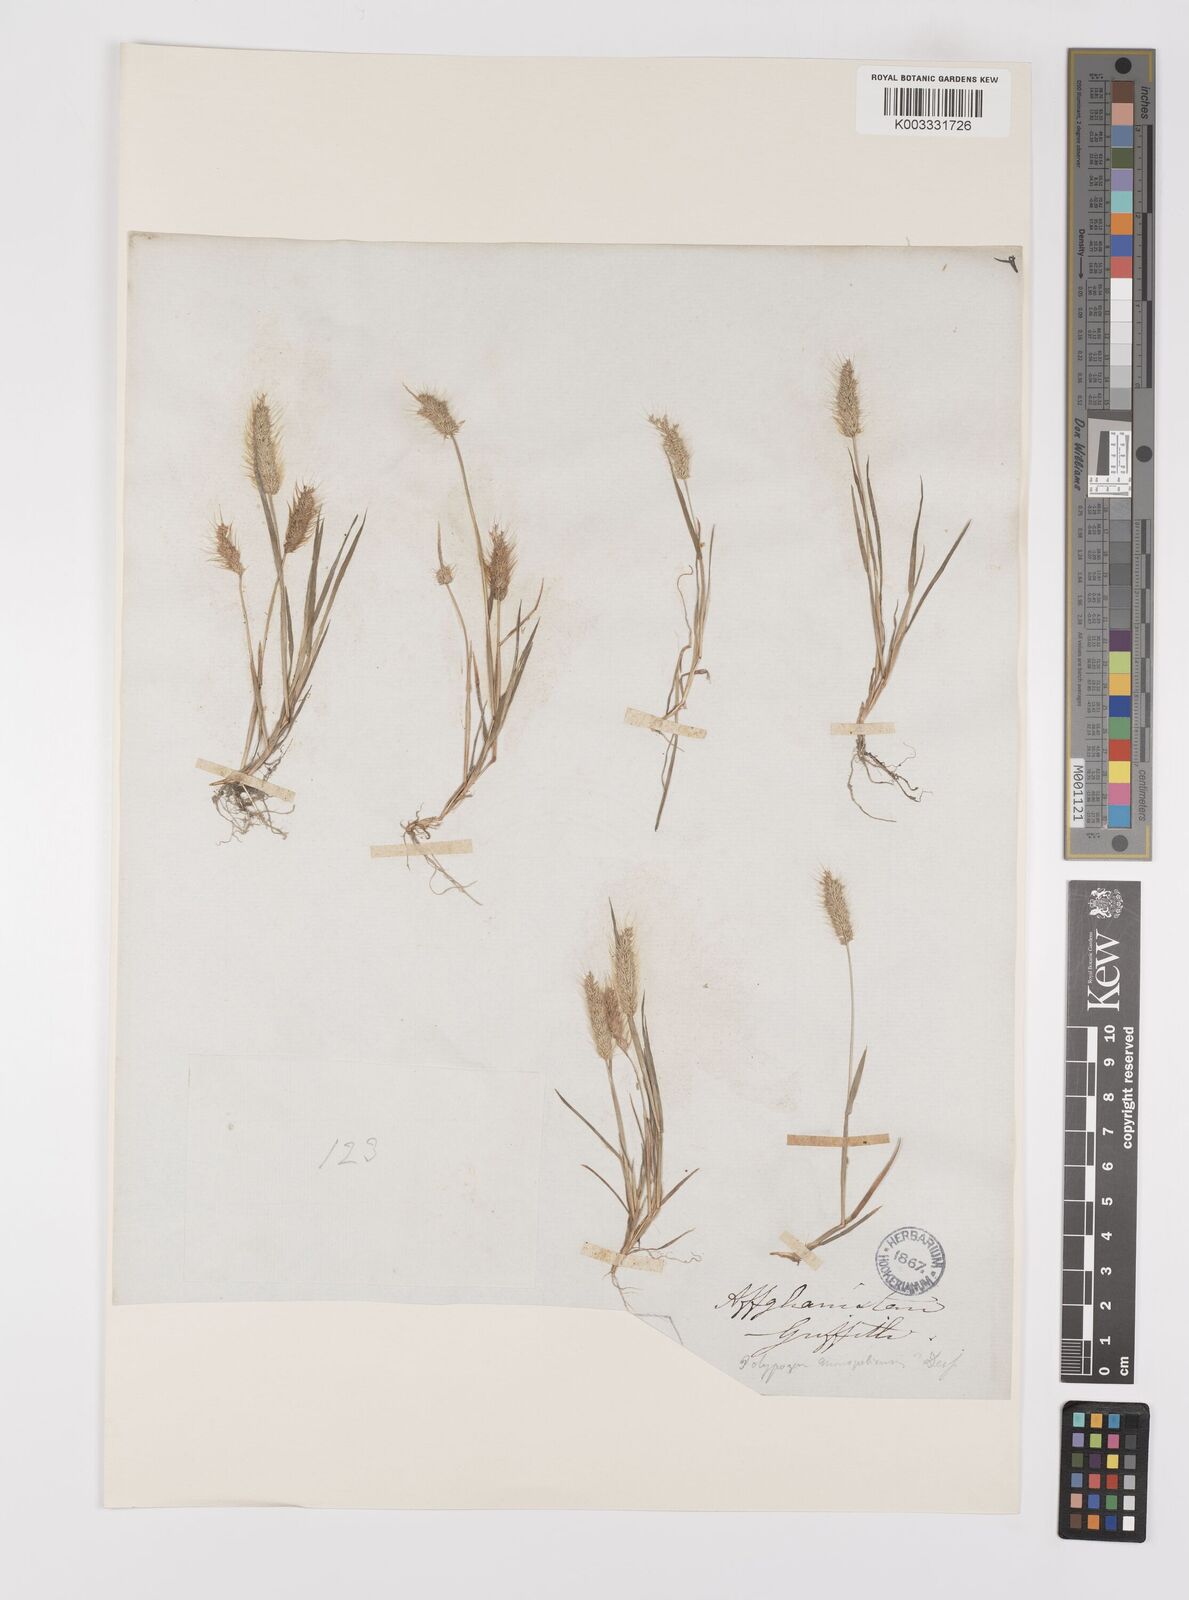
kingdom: Plantae
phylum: Tracheophyta
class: Liliopsida
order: Poales
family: Poaceae
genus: Polypogon
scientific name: Polypogon monspeliensis
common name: Annual rabbitsfoot grass
